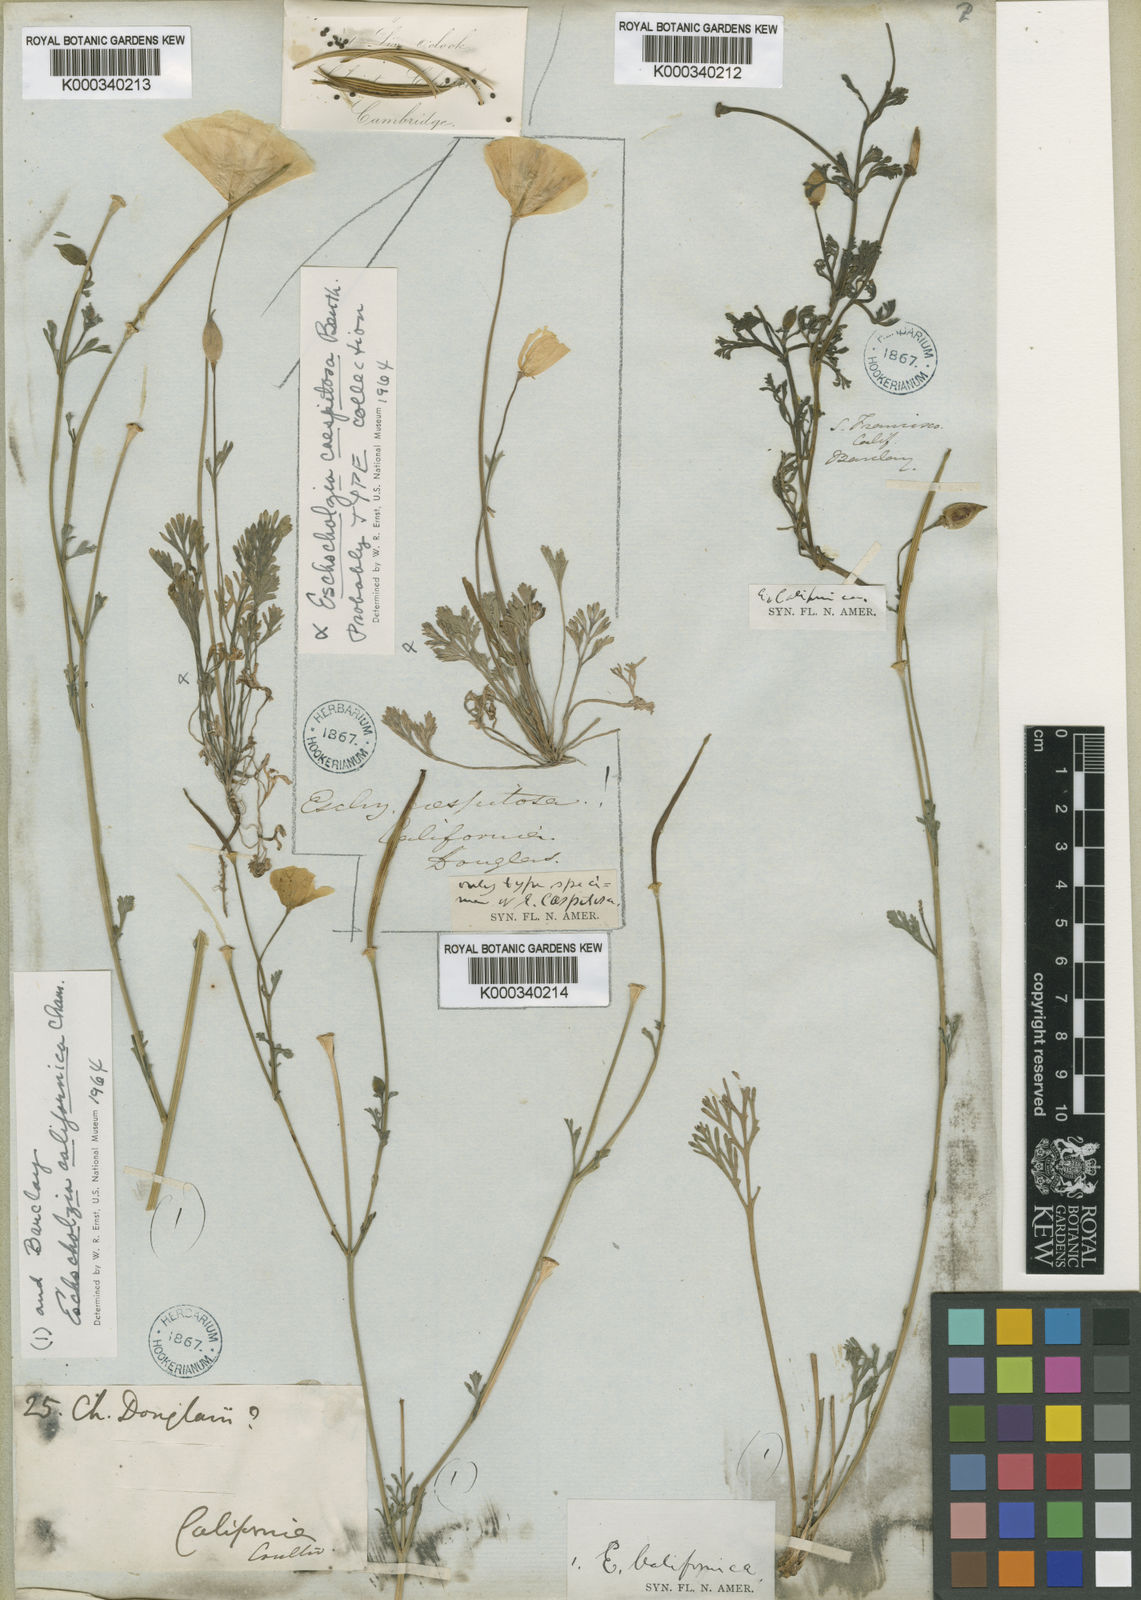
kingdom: Plantae
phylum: Tracheophyta
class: Magnoliopsida
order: Ranunculales
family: Papaveraceae
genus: Eschscholzia
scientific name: Eschscholzia californica
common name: California poppy
